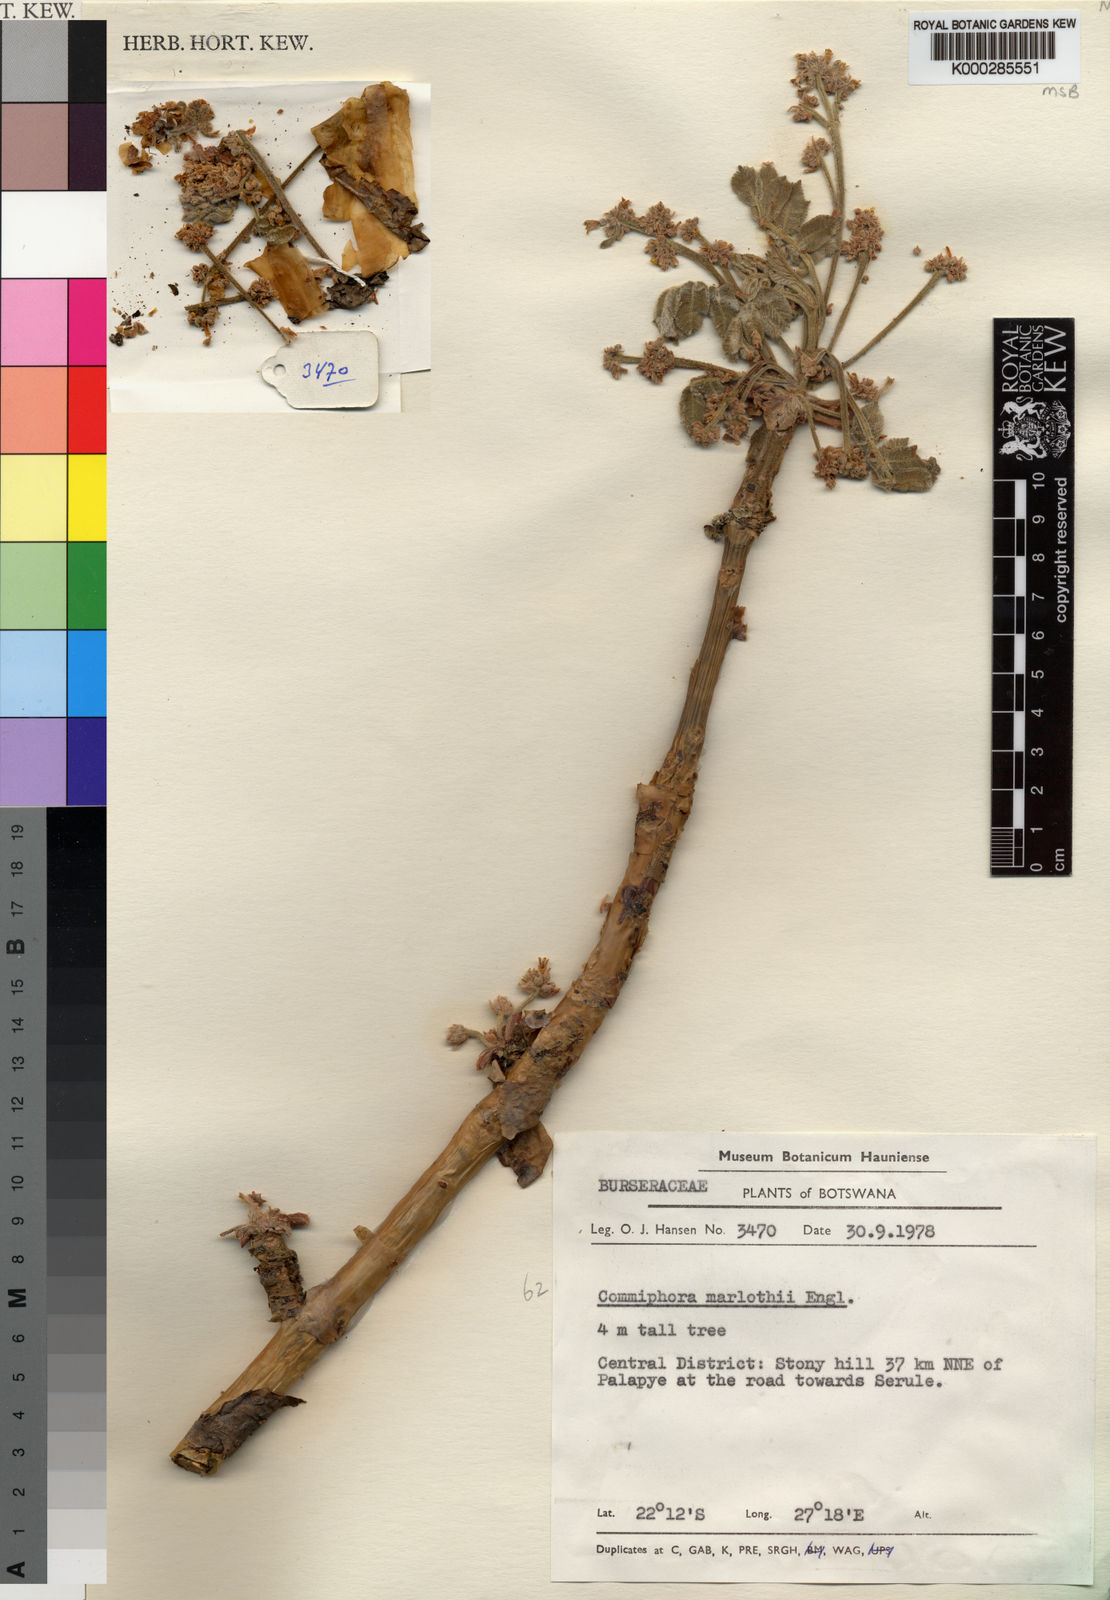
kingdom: Plantae
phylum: Tracheophyta
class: Magnoliopsida
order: Sapindales
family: Burseraceae
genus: Commiphora
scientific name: Commiphora marlothii
